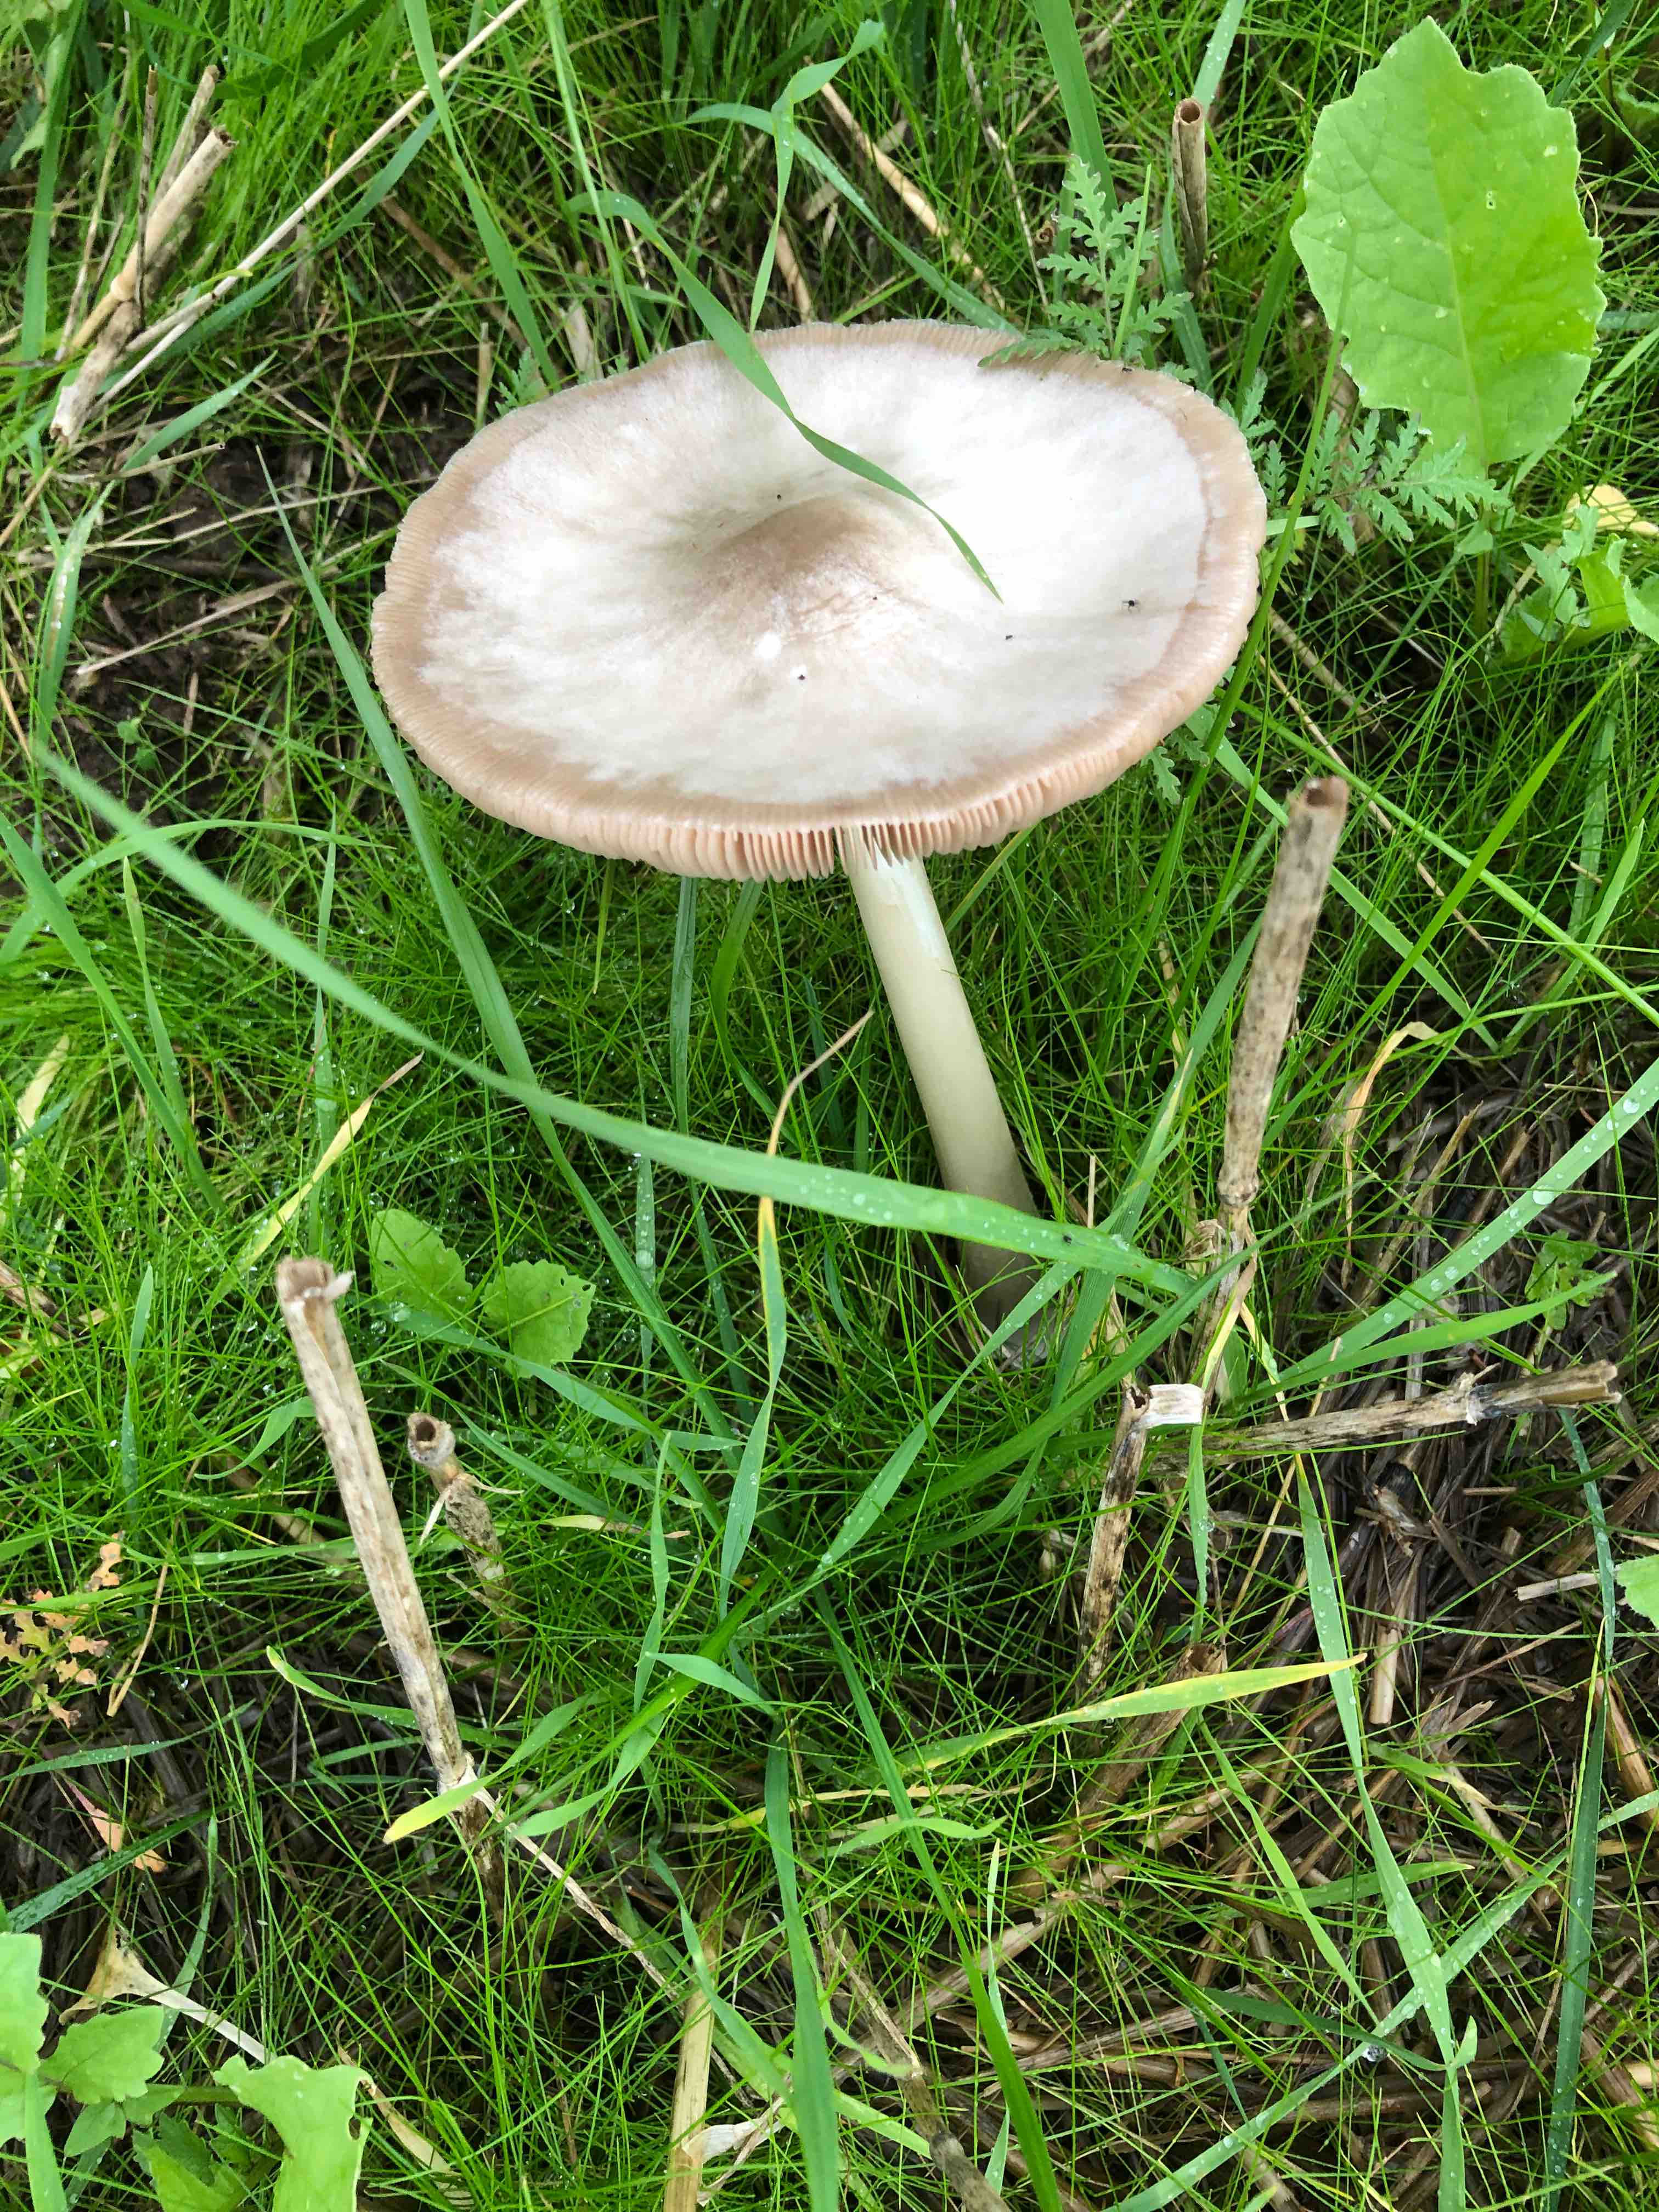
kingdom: Fungi
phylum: Basidiomycota
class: Agaricomycetes
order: Agaricales
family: Pluteaceae
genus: Volvopluteus
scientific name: Volvopluteus gloiocephalus
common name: høj posesvamp
